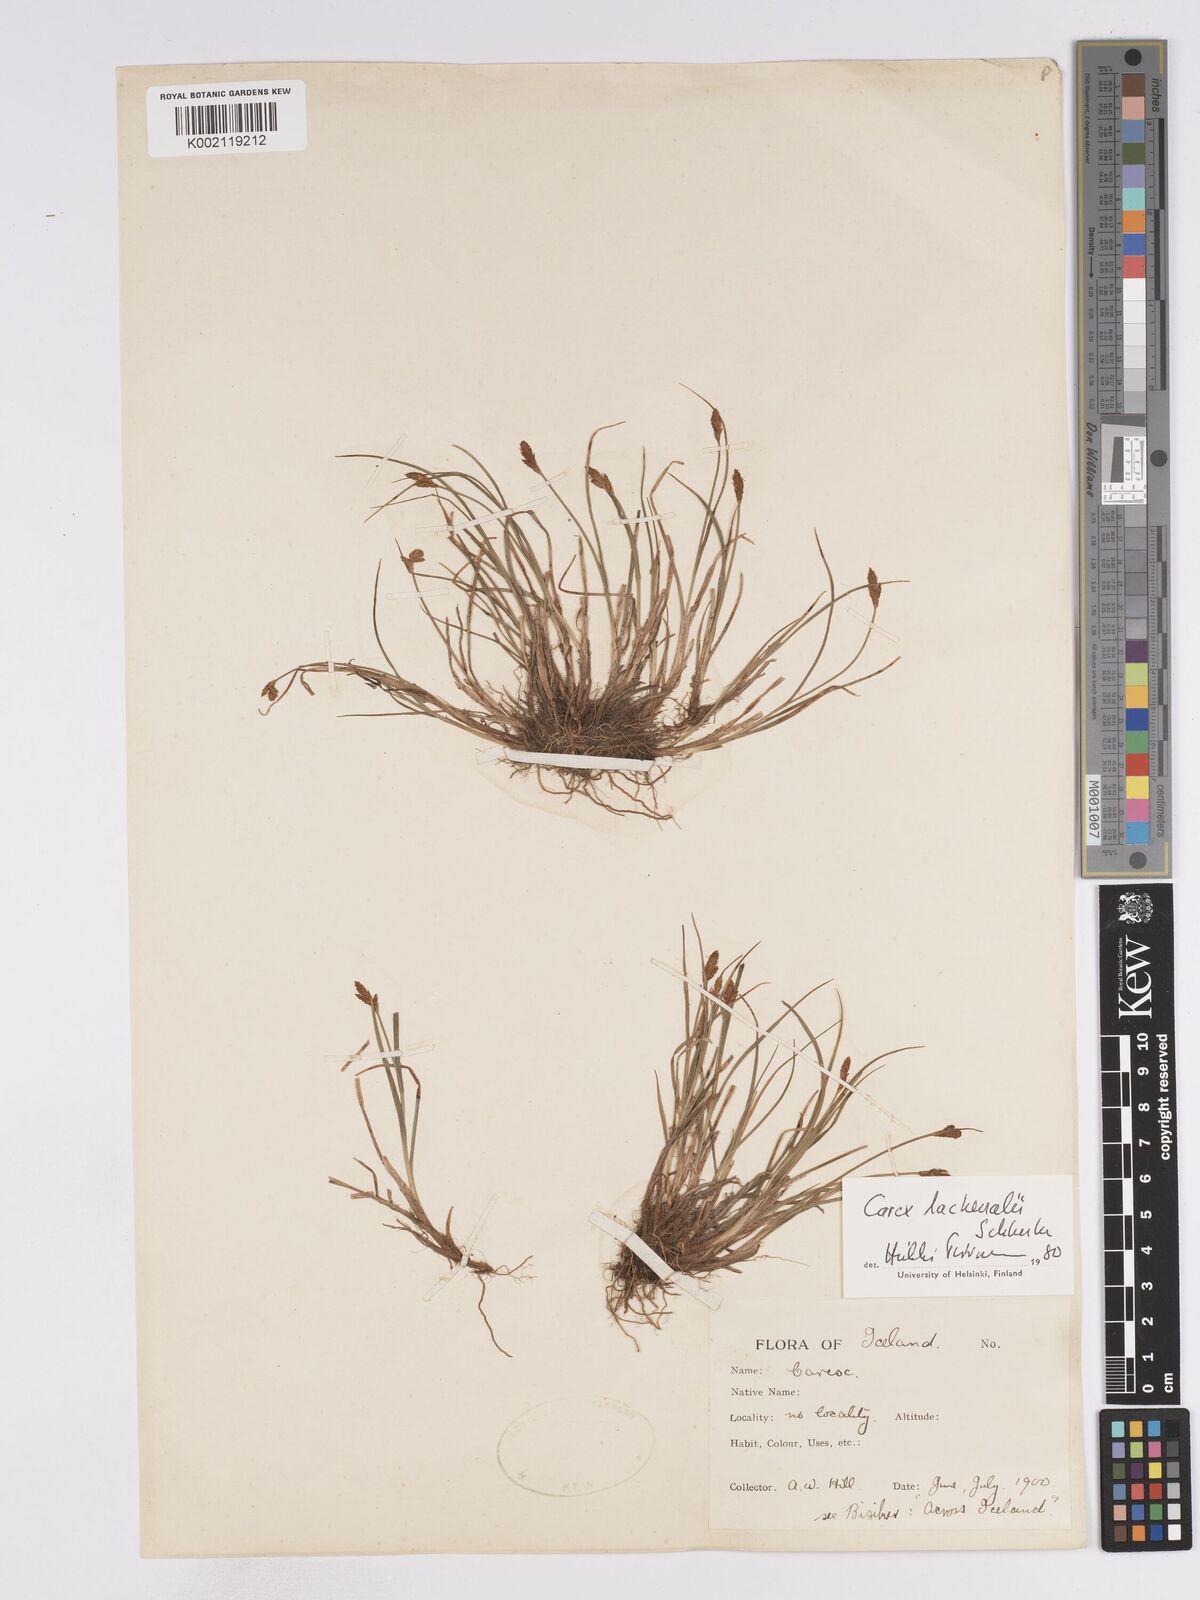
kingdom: Plantae
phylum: Tracheophyta
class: Liliopsida
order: Poales
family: Cyperaceae
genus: Carex
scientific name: Carex lachenalii
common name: Hare's-foot sedge
